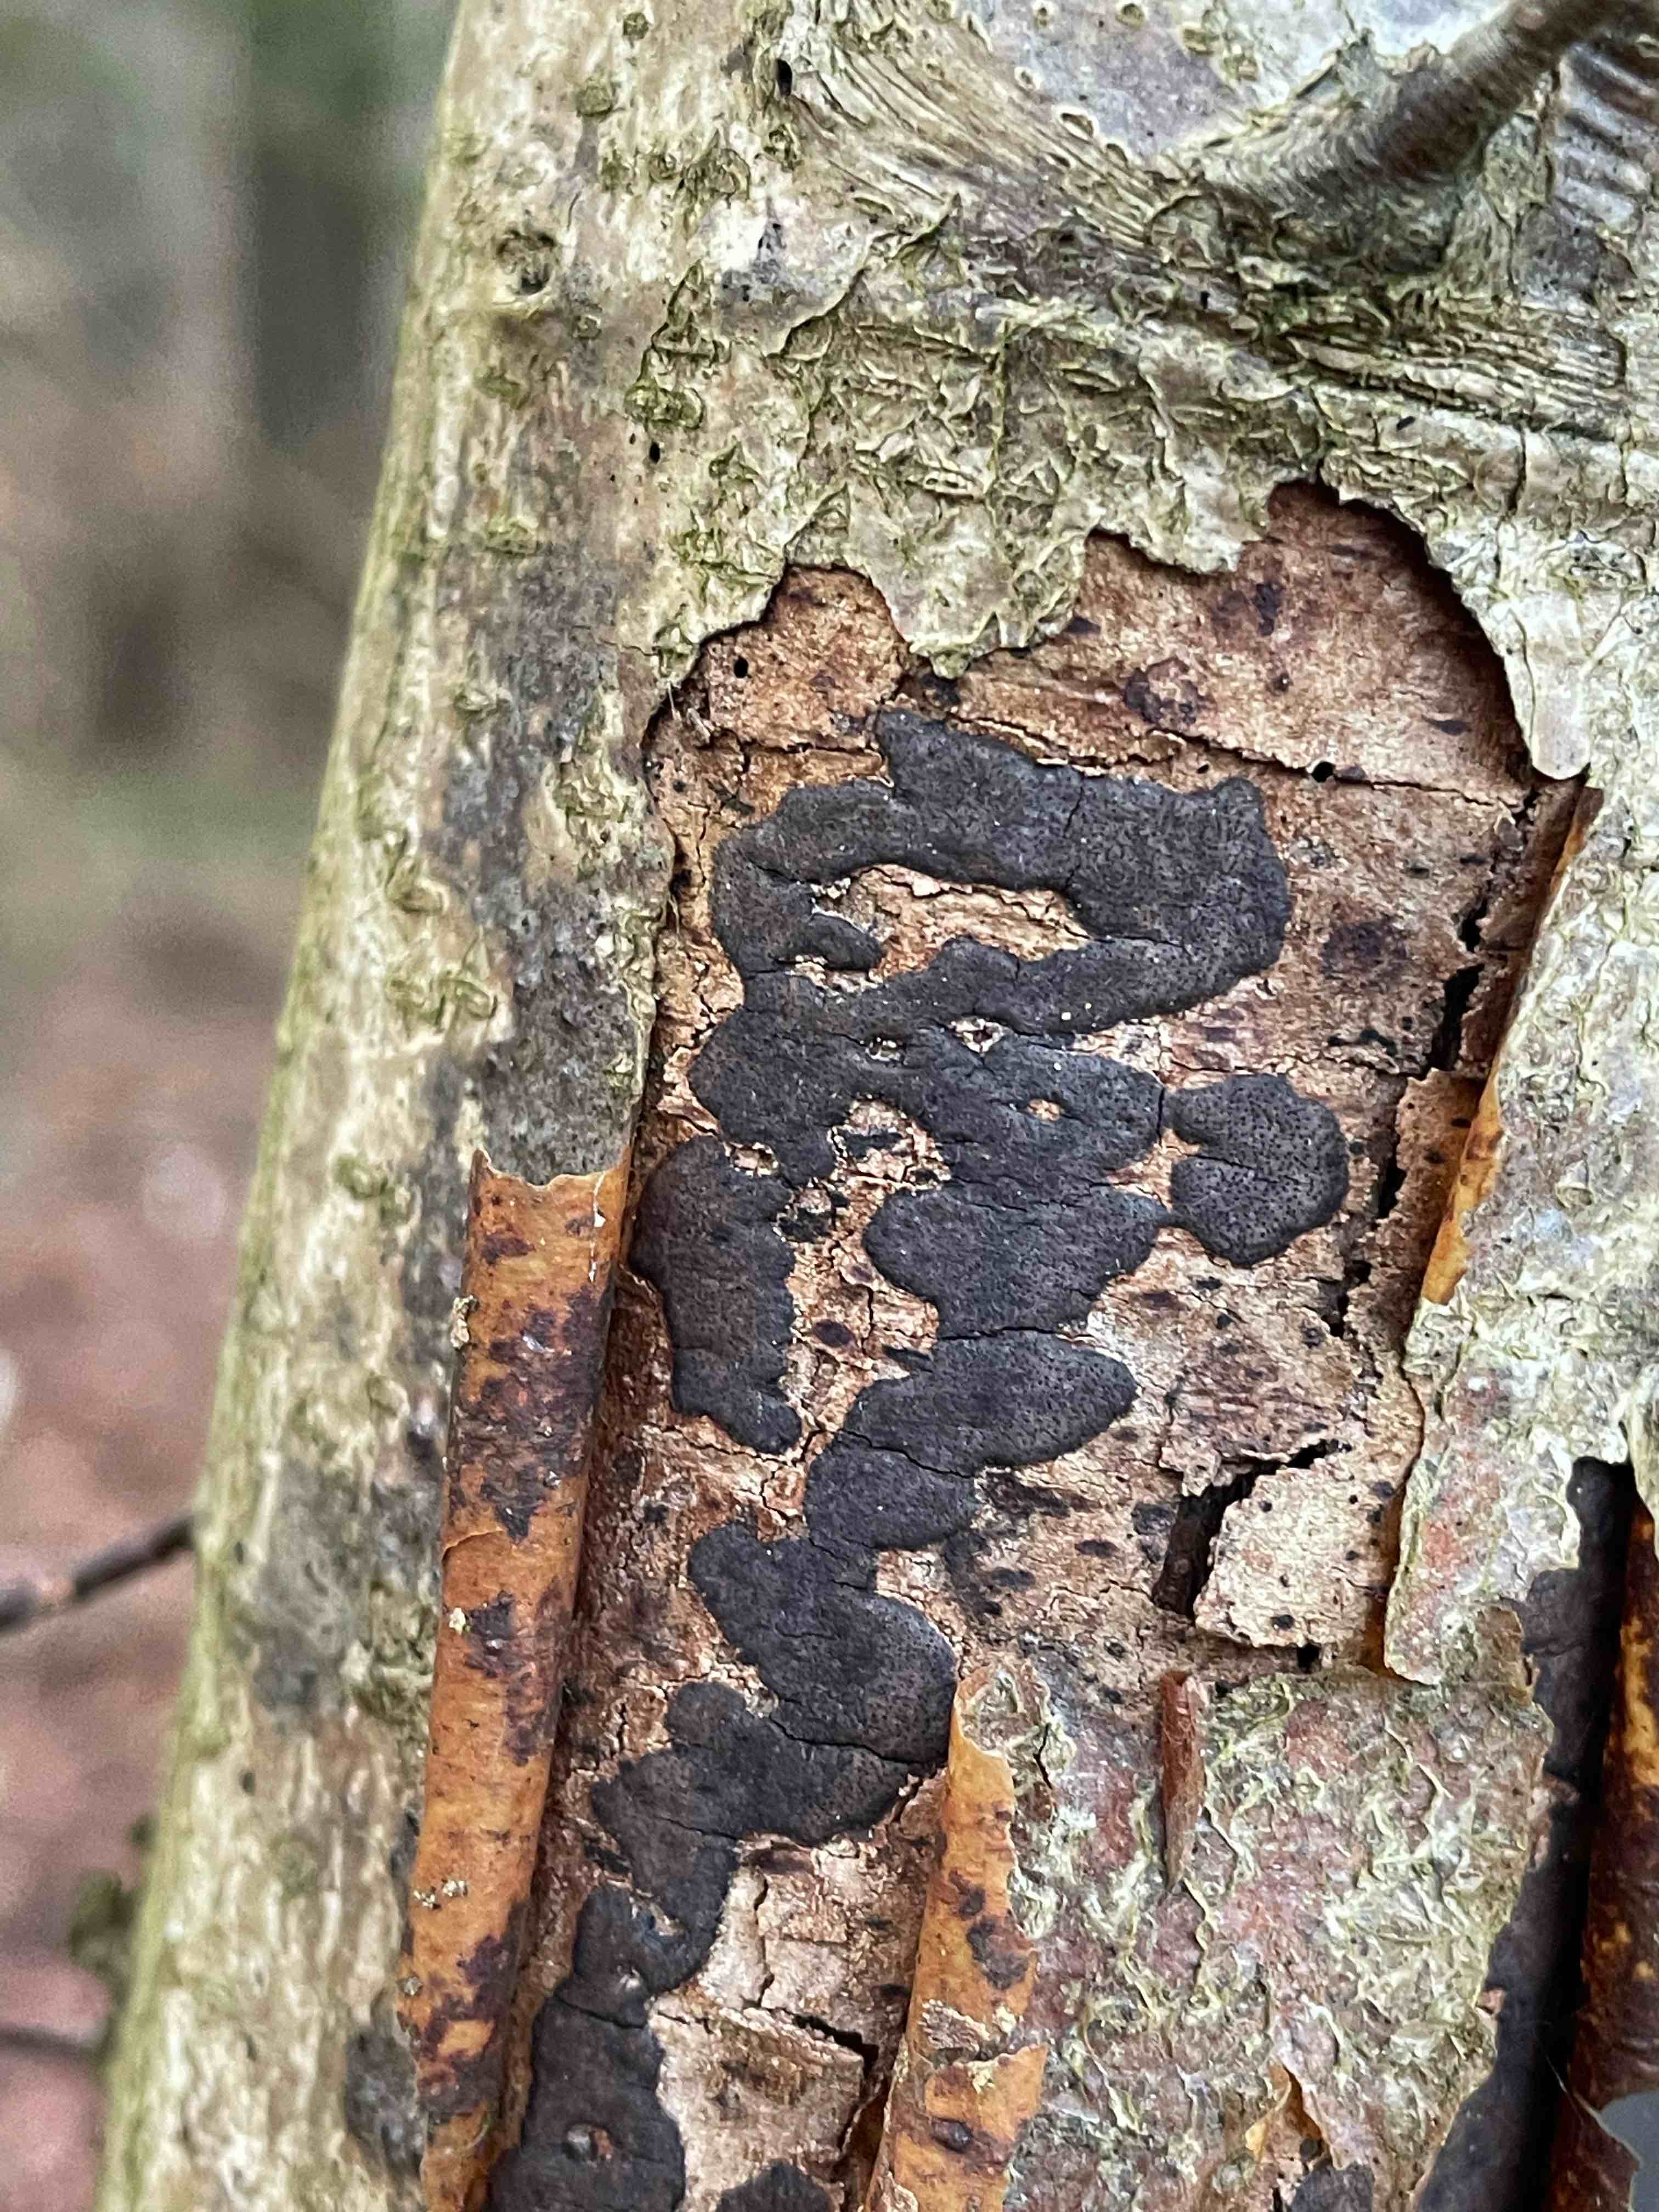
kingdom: Fungi
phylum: Ascomycota
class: Sordariomycetes
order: Xylariales
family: Diatrypaceae
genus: Diatrype
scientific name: Diatrype decorticata
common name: barksprænger-kulskorpe
